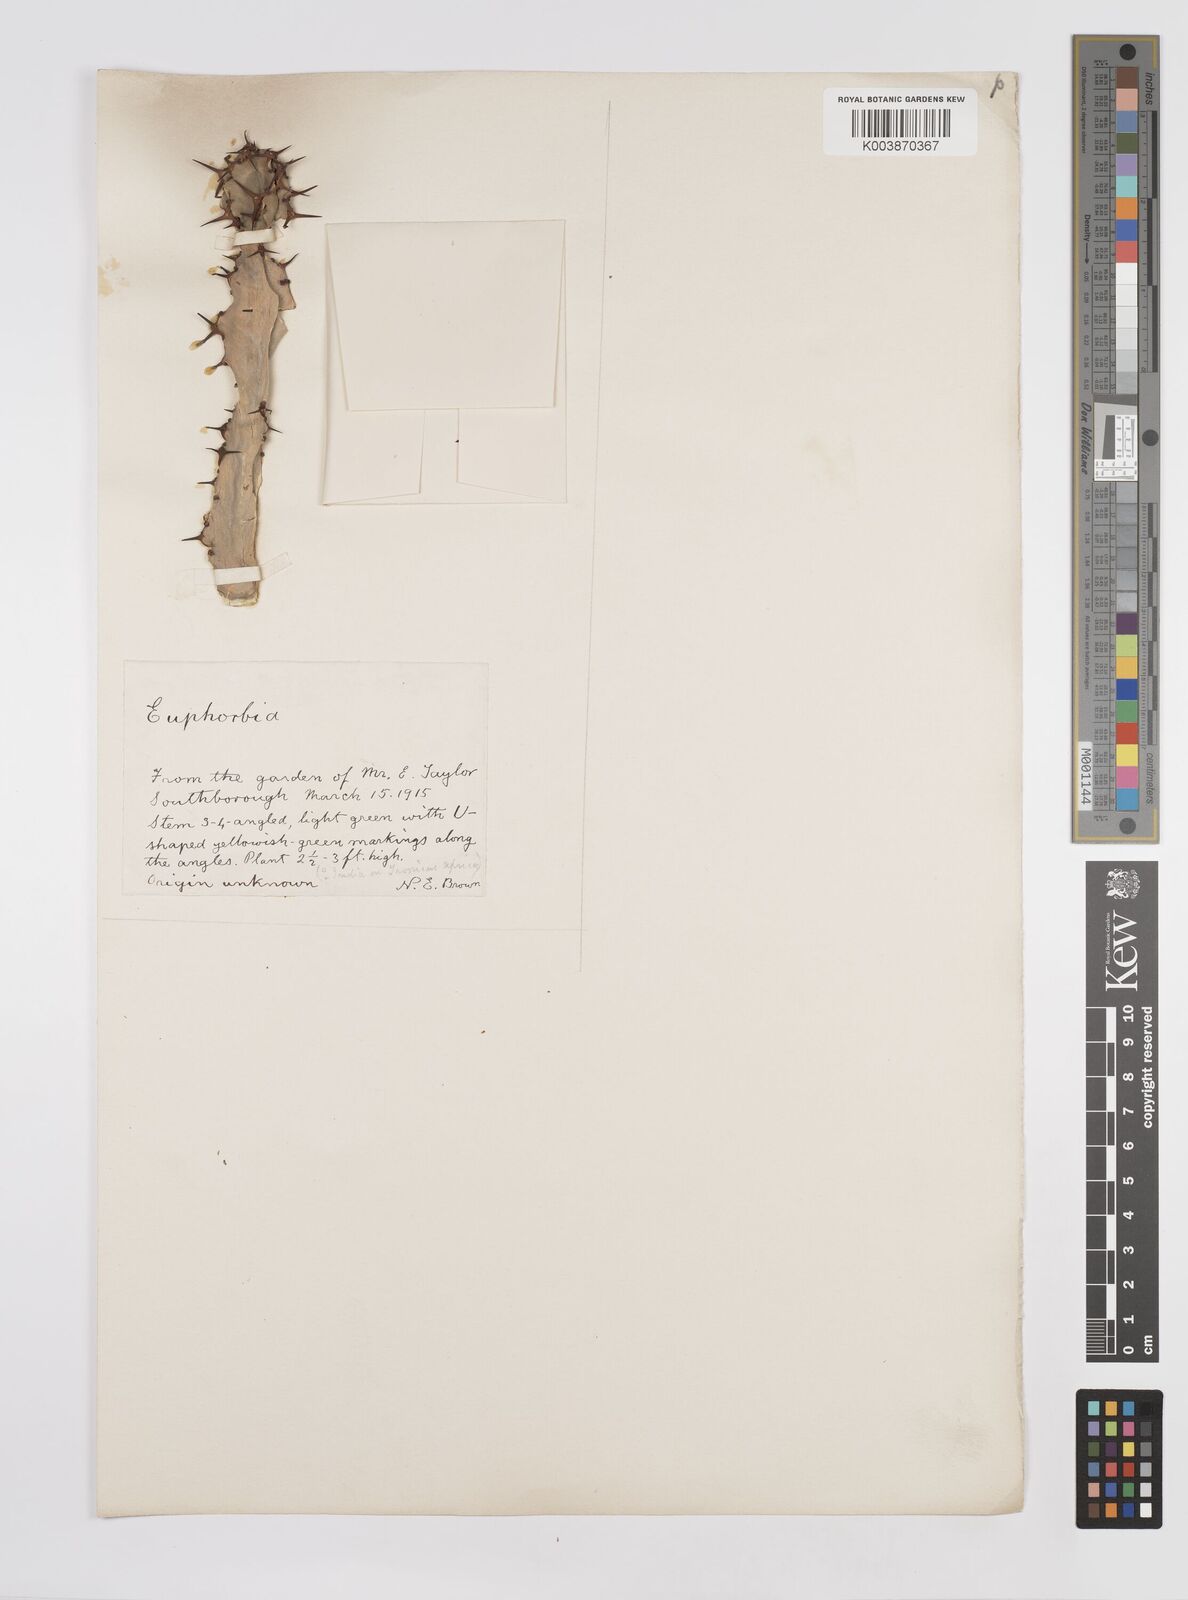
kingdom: Plantae
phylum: Tracheophyta
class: Magnoliopsida
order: Malpighiales
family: Euphorbiaceae
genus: Euphorbia
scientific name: Euphorbia
